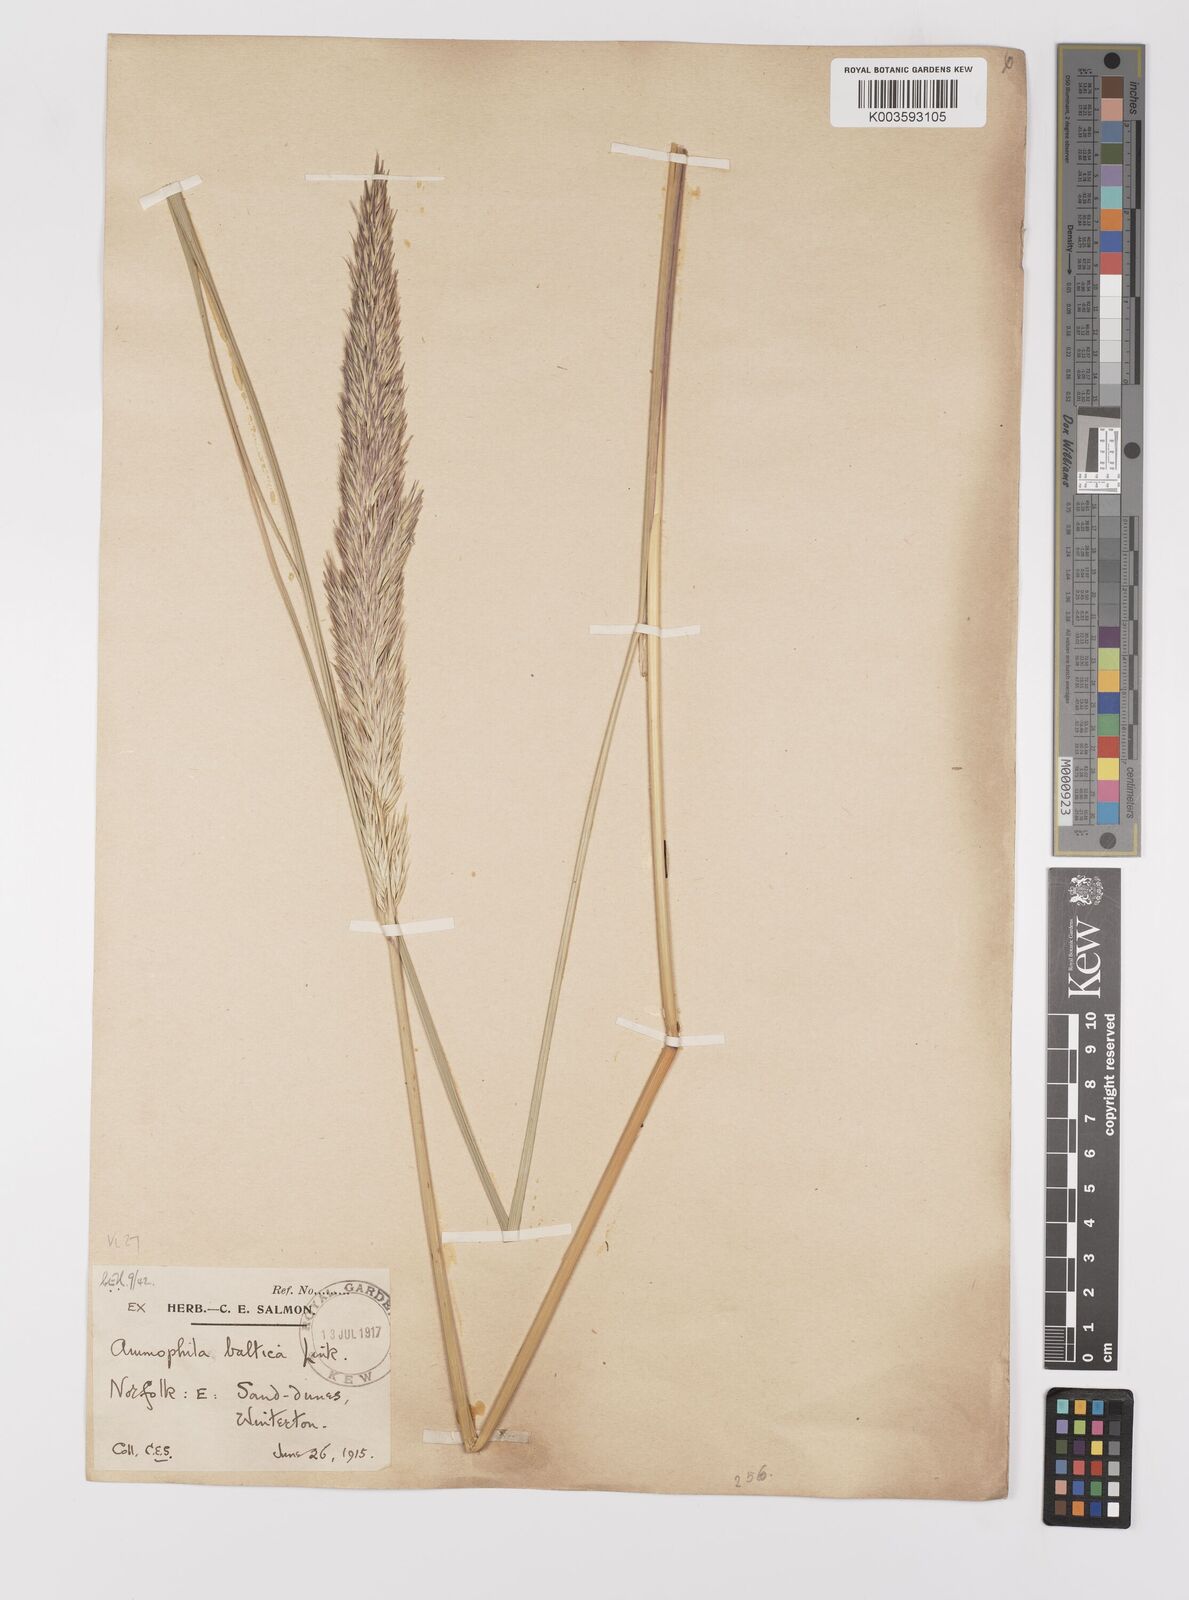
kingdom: Plantae
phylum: Tracheophyta
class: Liliopsida
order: Poales
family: Poaceae
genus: Calamagrostis
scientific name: Calamagrostis baltica
